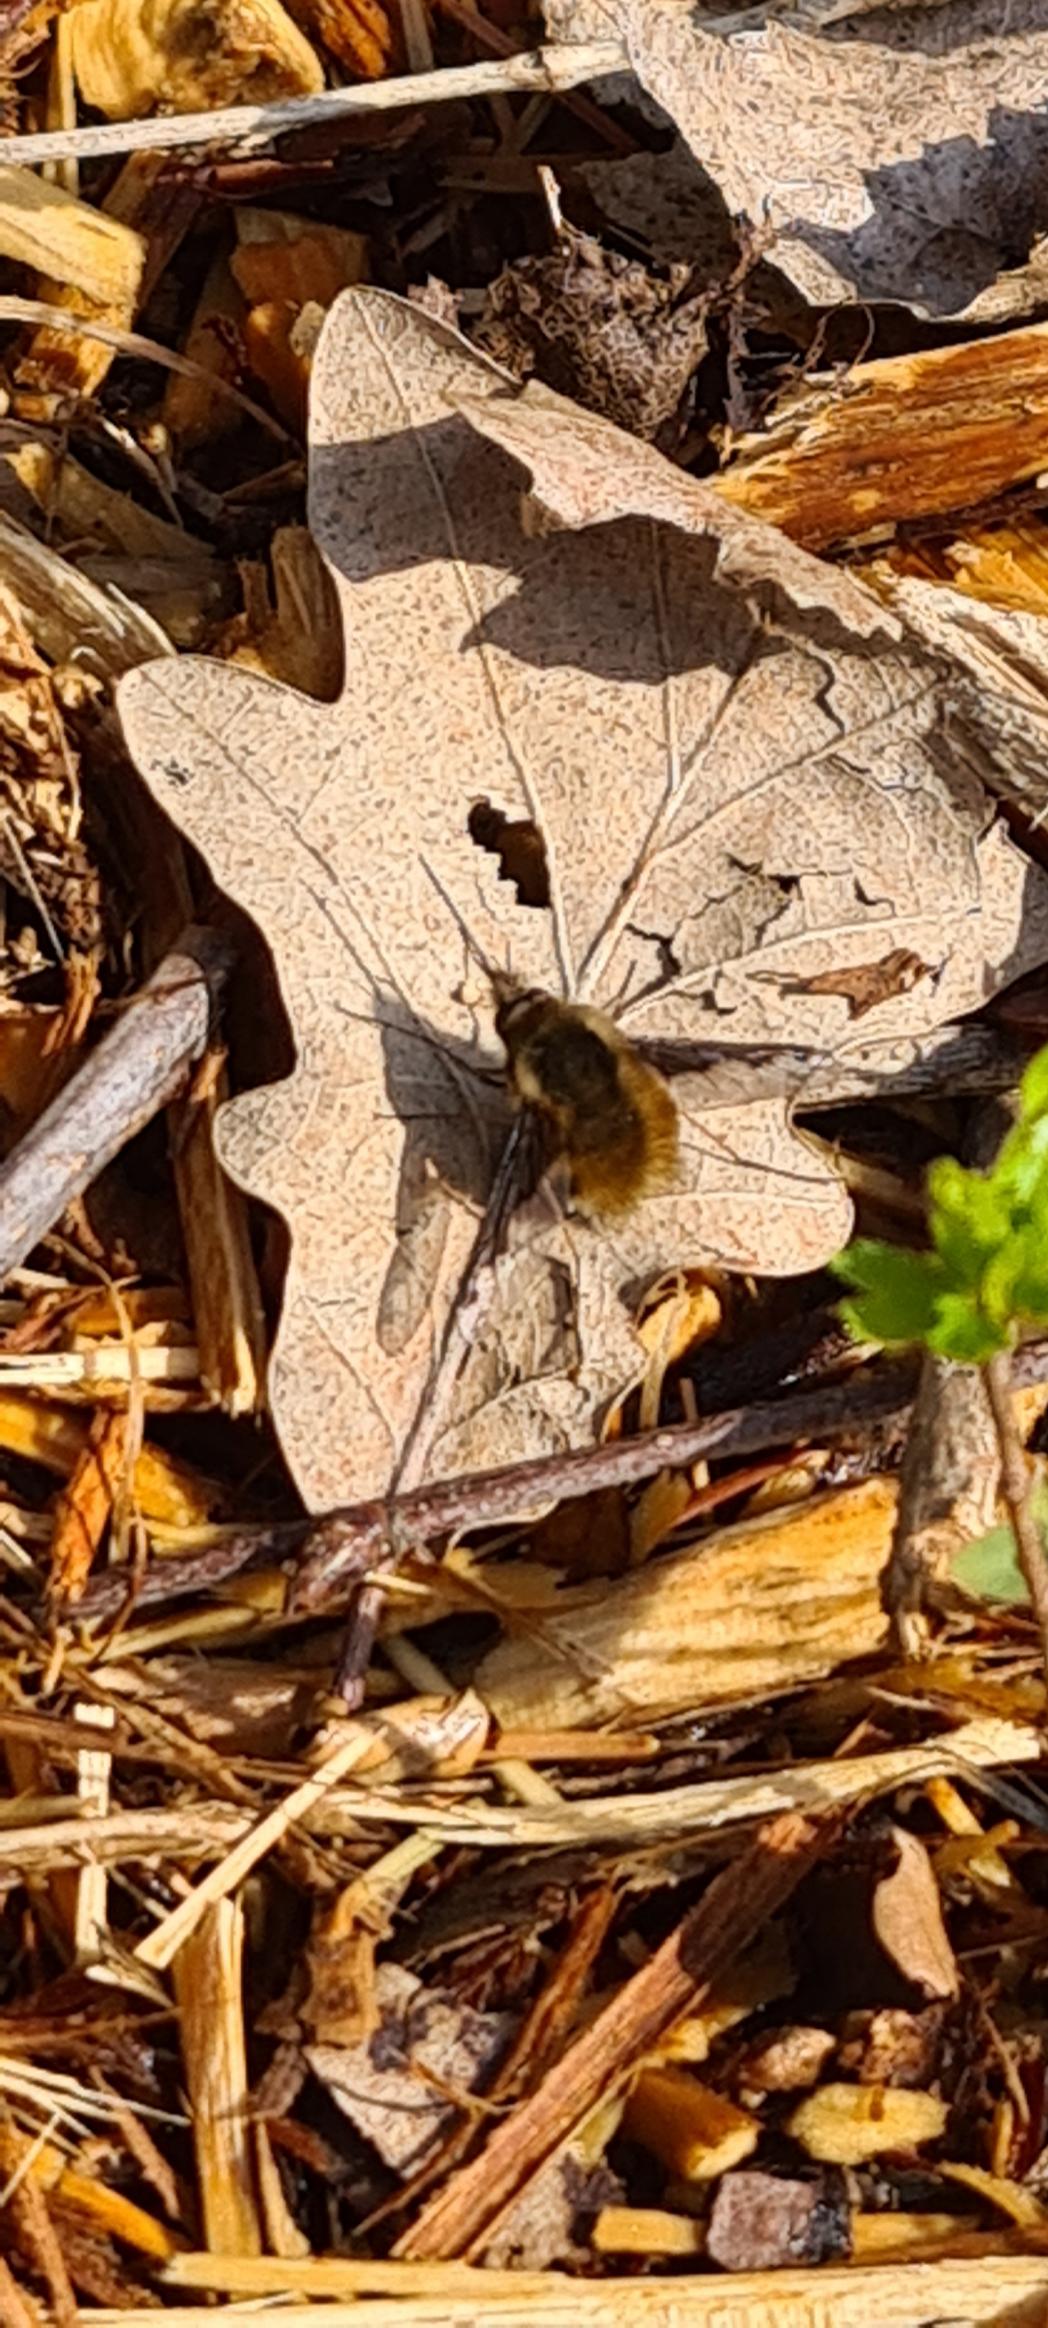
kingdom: Animalia
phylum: Arthropoda
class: Insecta
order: Diptera
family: Bombyliidae
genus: Bombylius
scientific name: Bombylius major
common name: Stor humleflue
